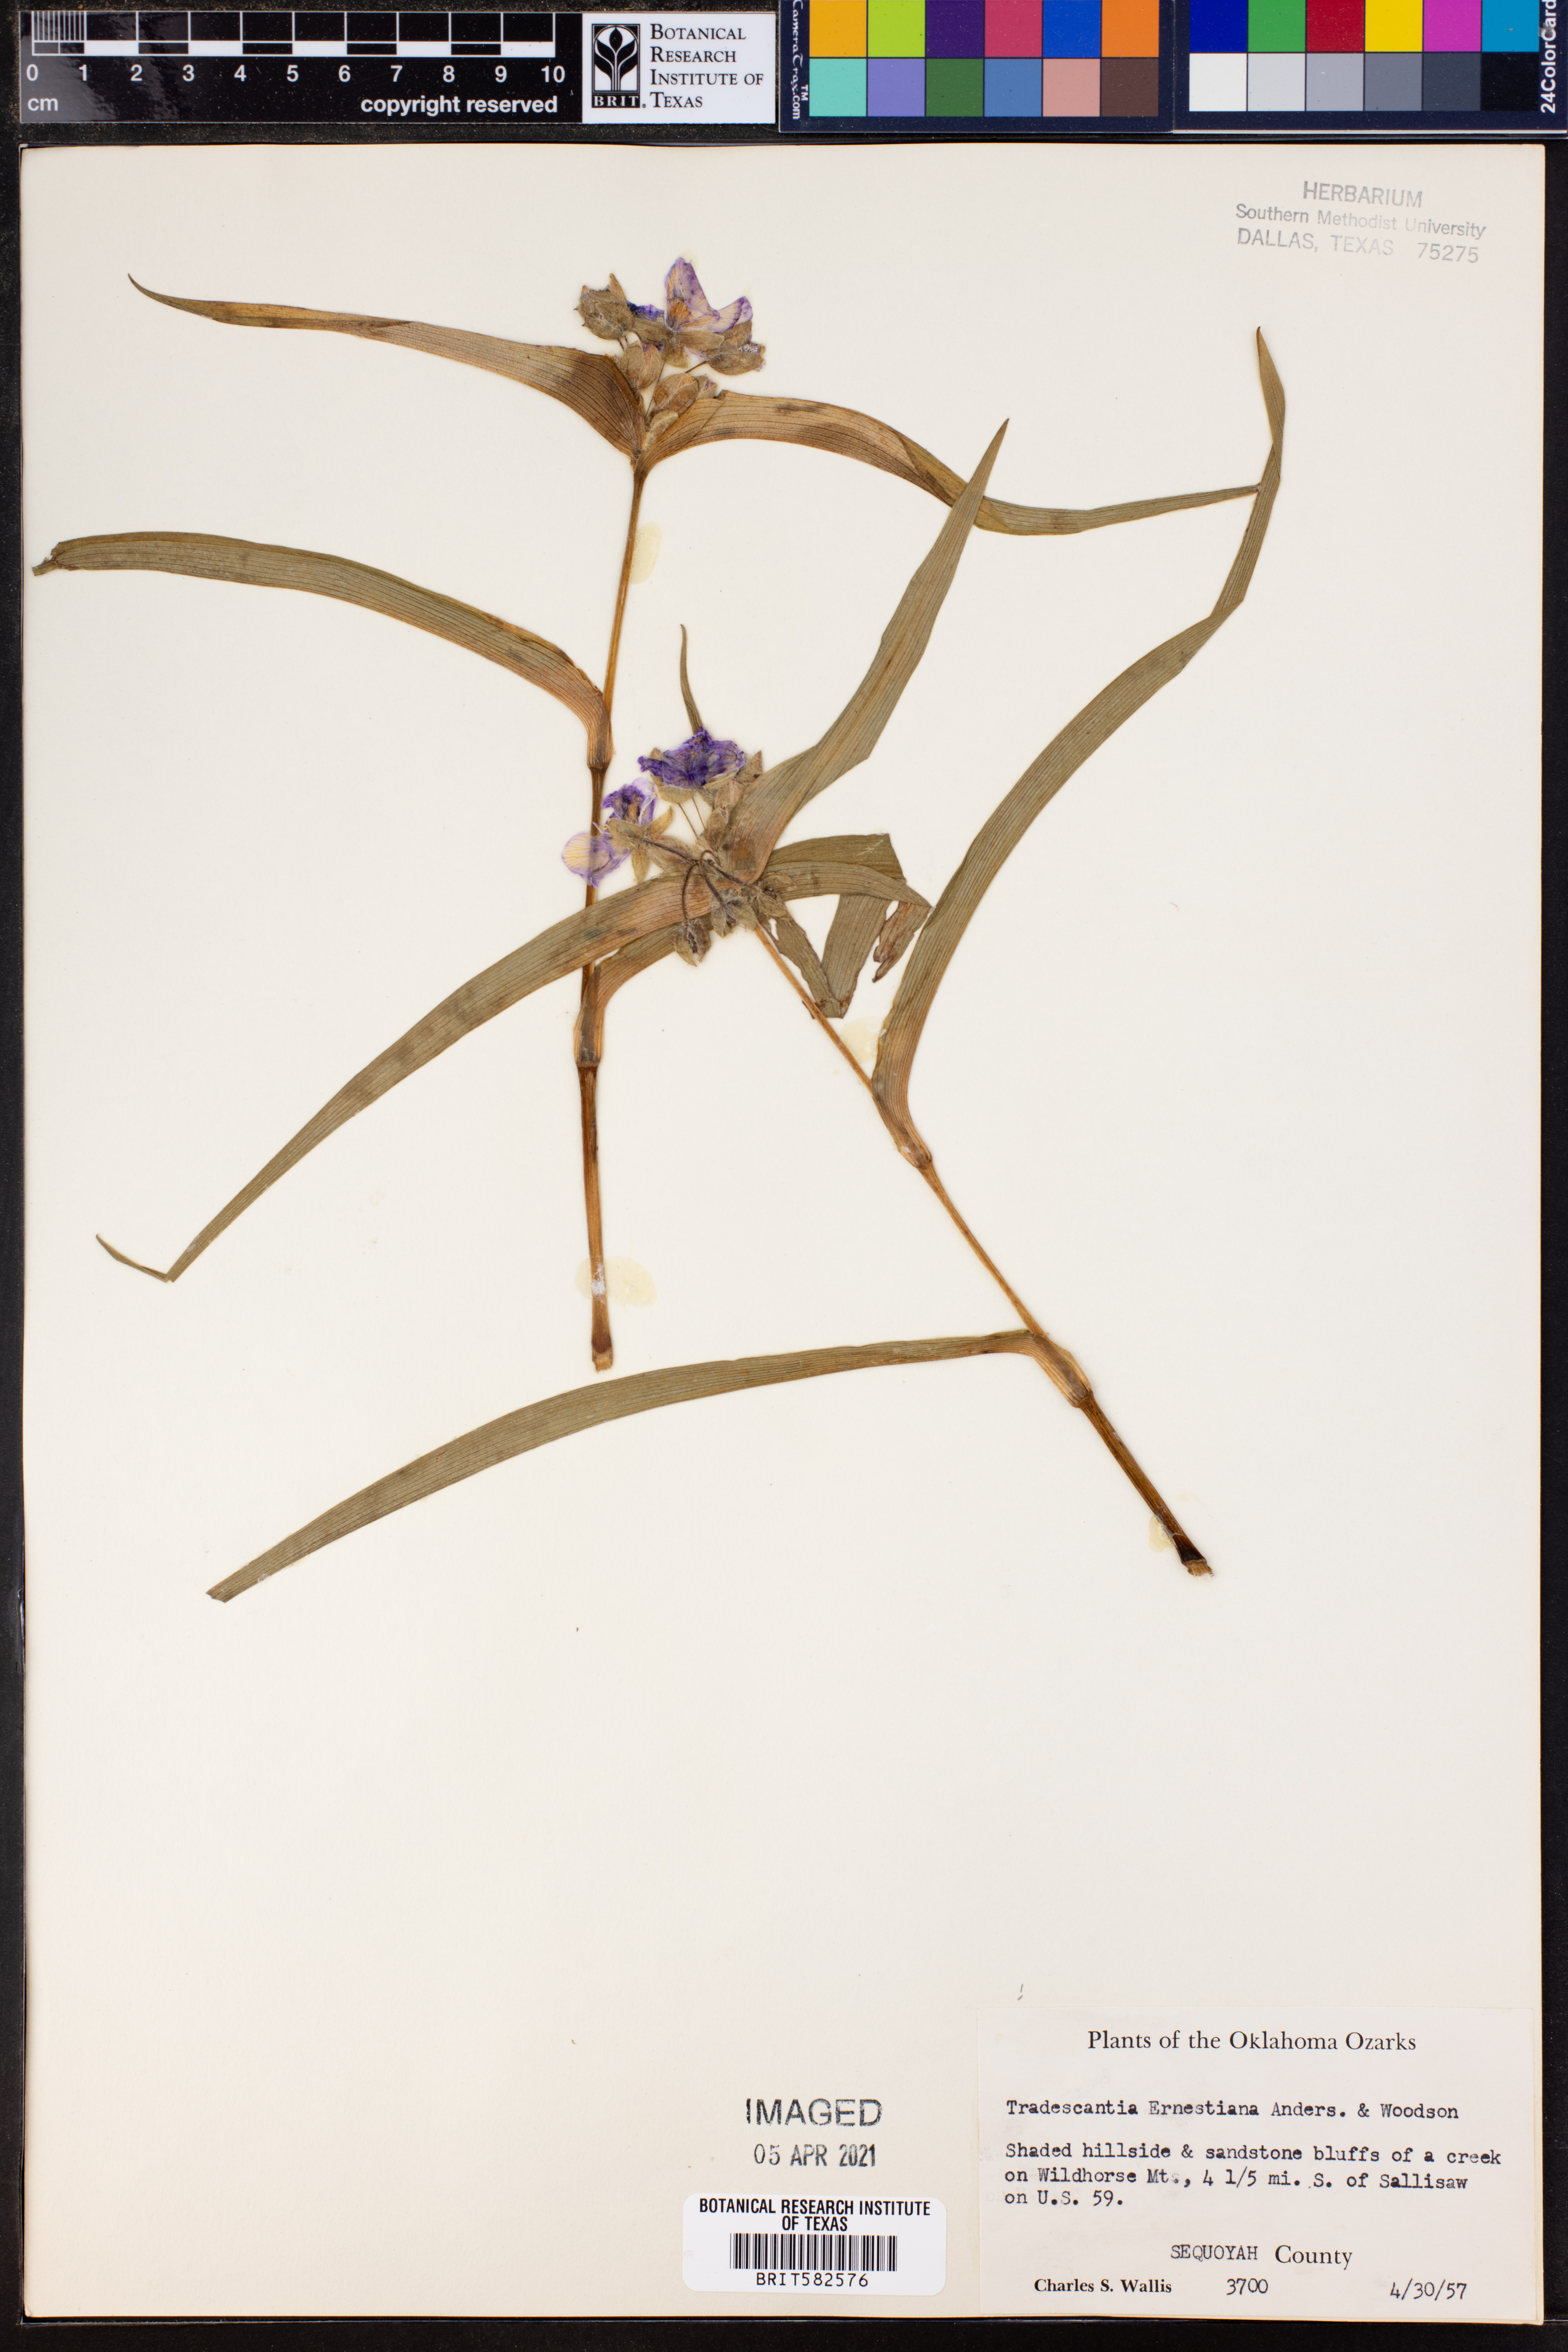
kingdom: Plantae
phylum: Tracheophyta
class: Liliopsida
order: Commelinales
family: Commelinaceae
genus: Tradescantia
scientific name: Tradescantia ernestiana
